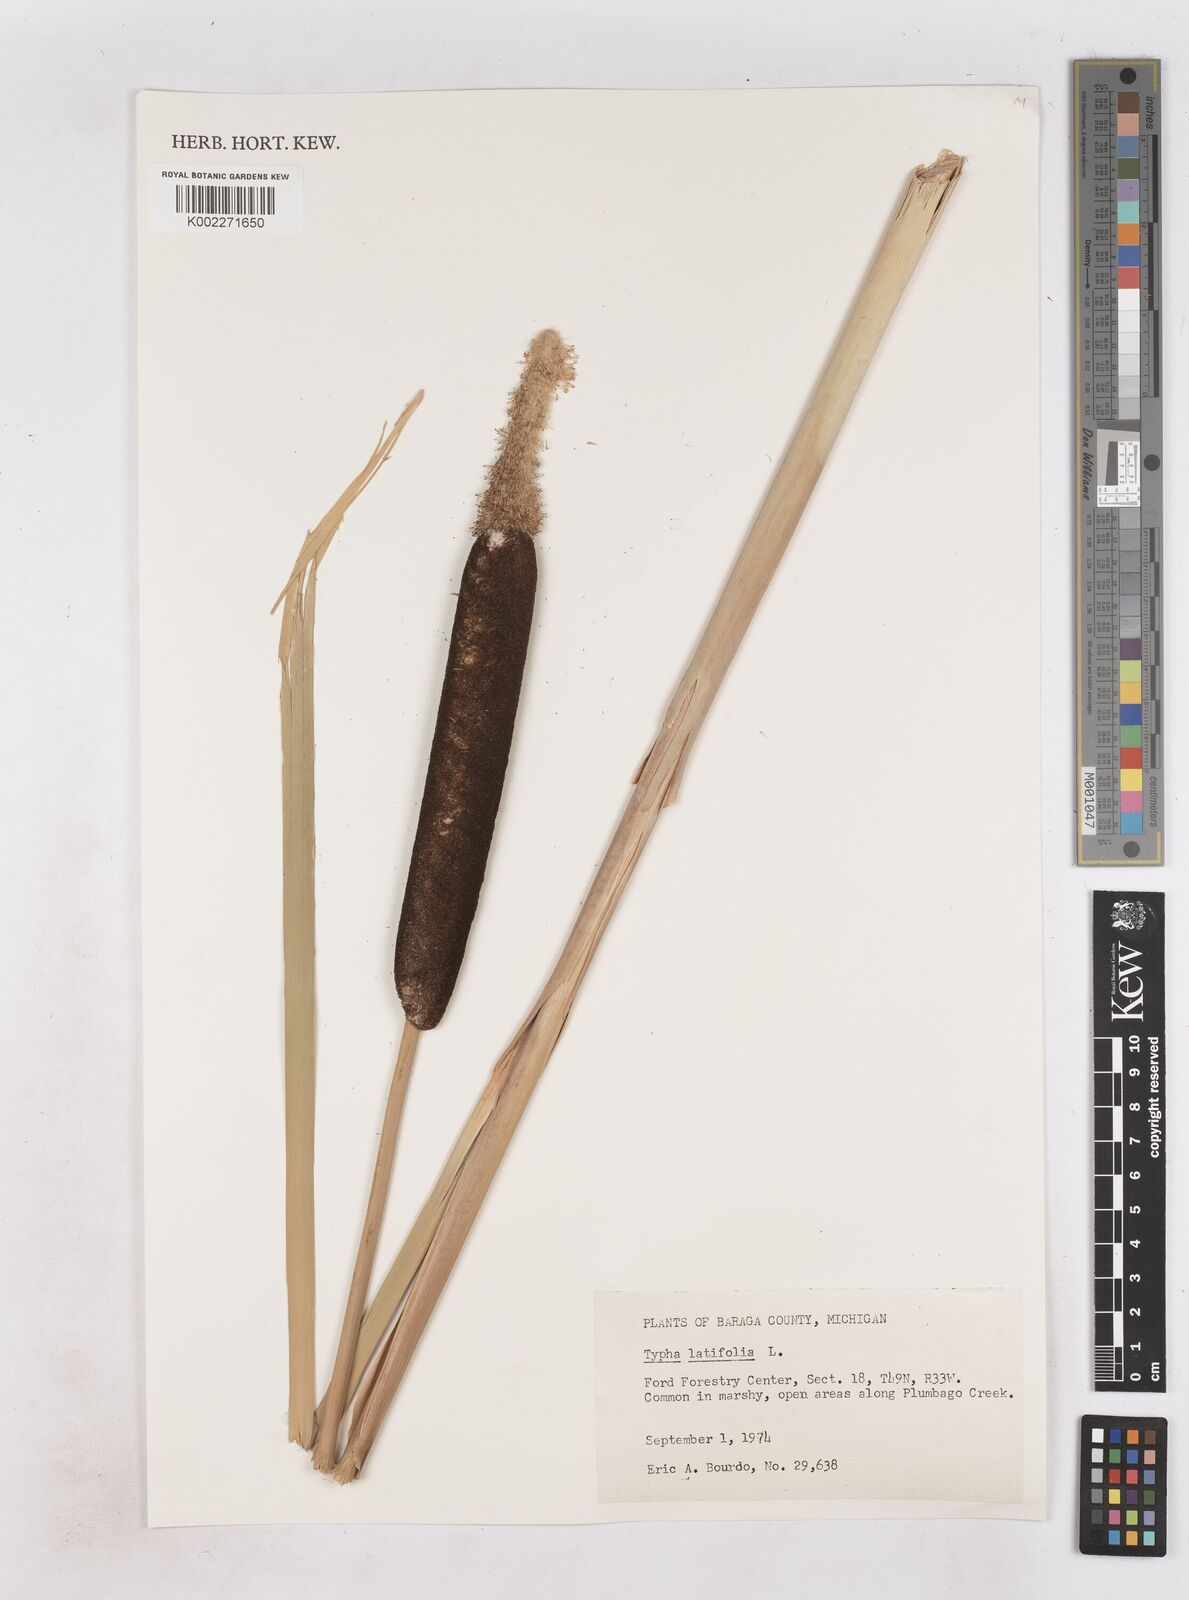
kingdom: Plantae
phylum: Tracheophyta
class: Liliopsida
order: Poales
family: Typhaceae
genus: Typha
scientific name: Typha latifolia
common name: Broadleaf cattail
